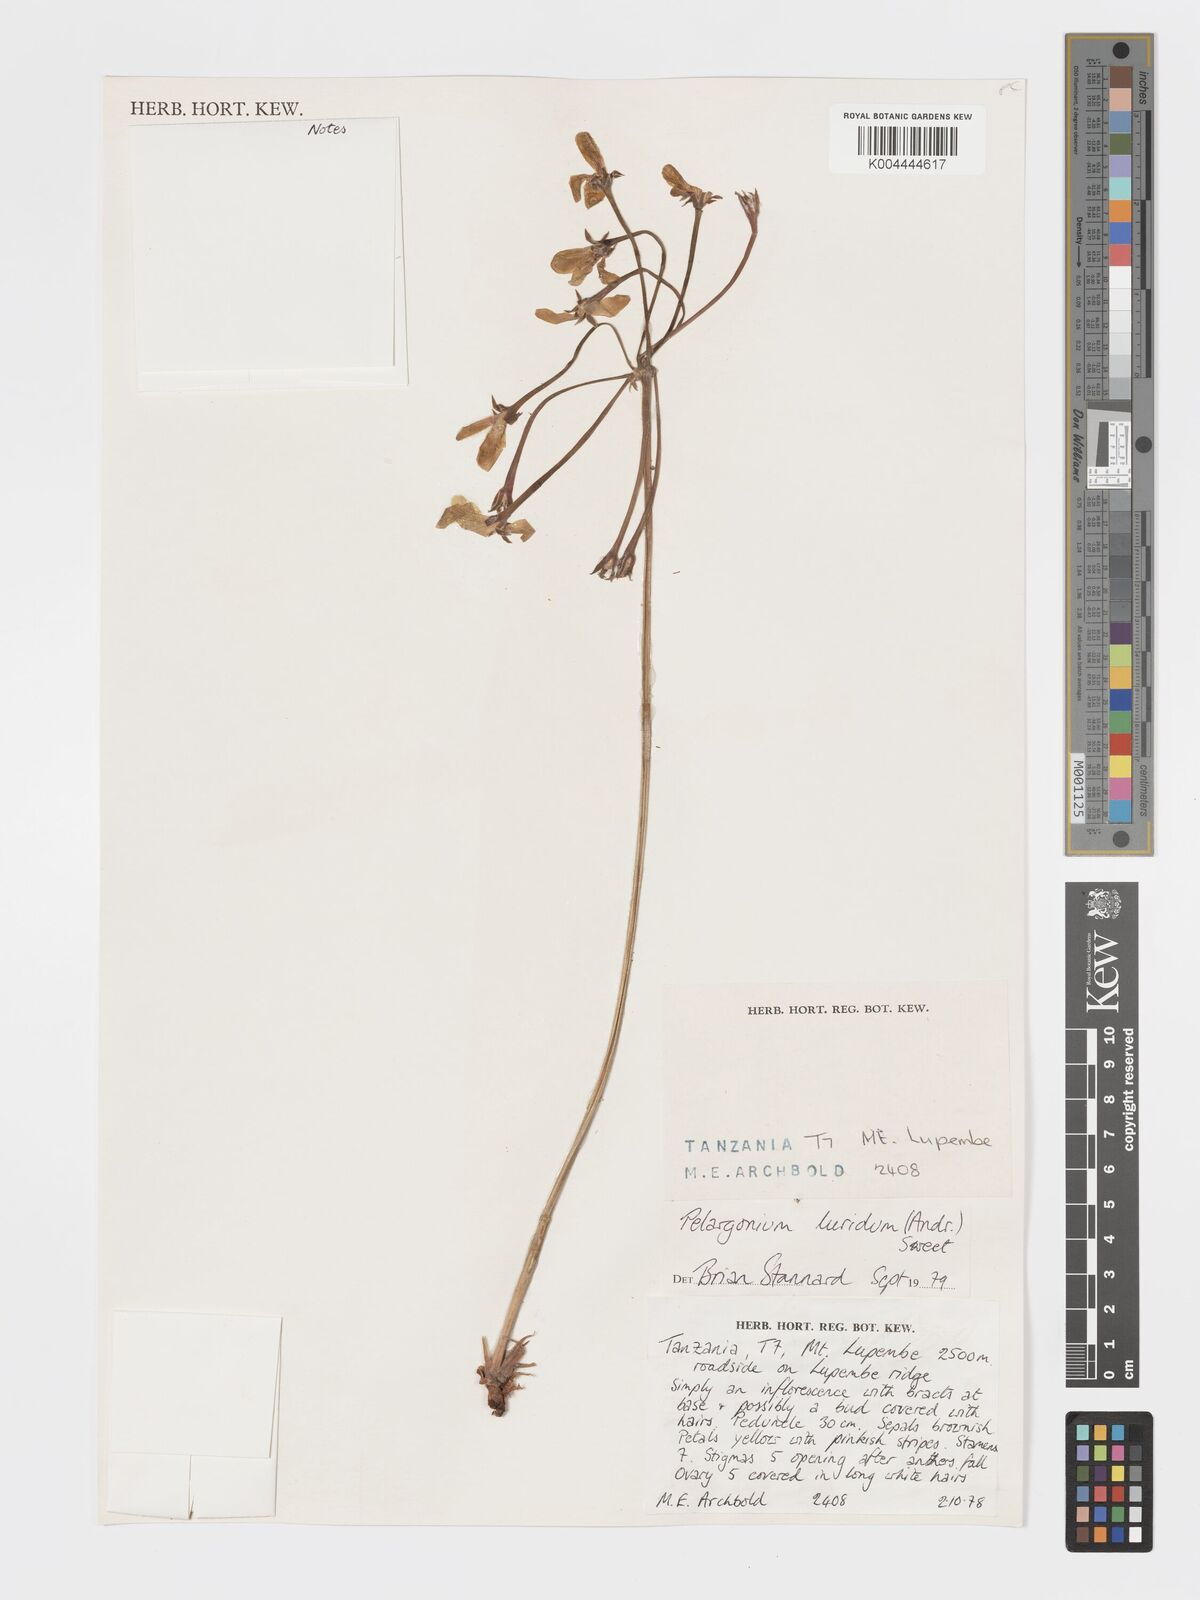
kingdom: Plantae
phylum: Tracheophyta
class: Magnoliopsida
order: Geraniales
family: Geraniaceae
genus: Pelargonium
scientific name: Pelargonium luridum
